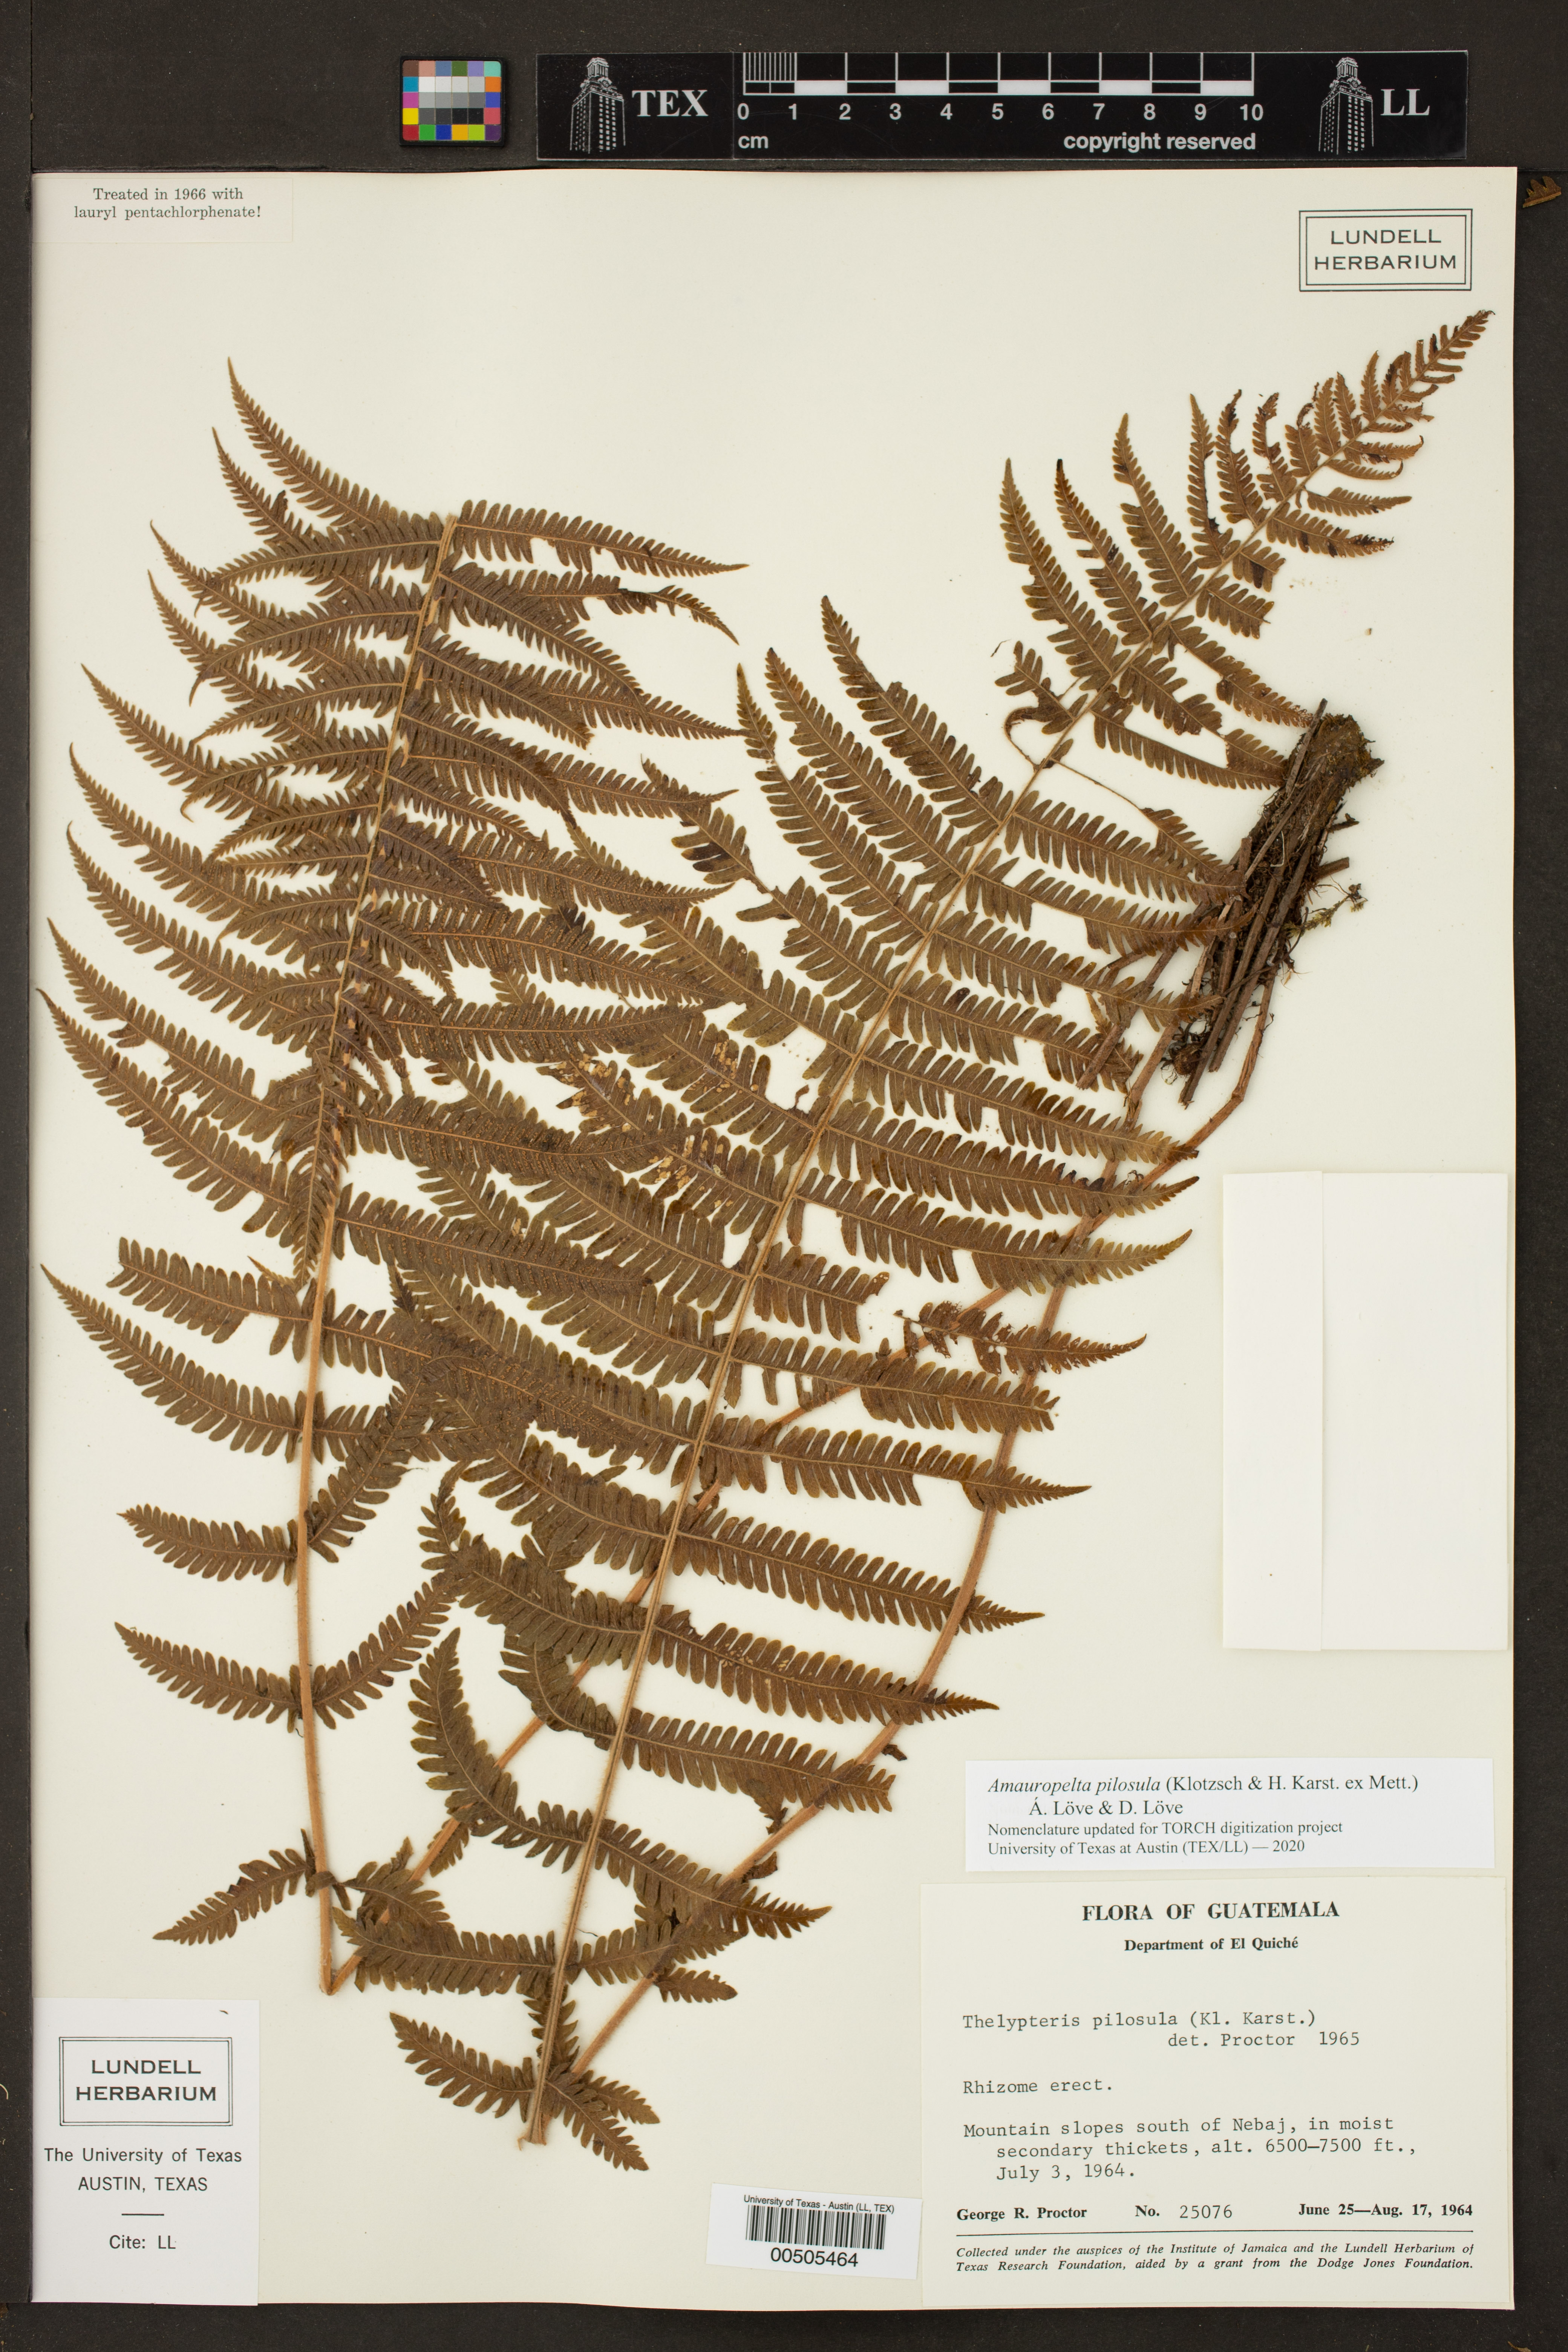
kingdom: Plantae
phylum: Tracheophyta
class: Polypodiopsida
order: Polypodiales
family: Thelypteridaceae
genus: Amauropelta
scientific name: Amauropelta pilosula
